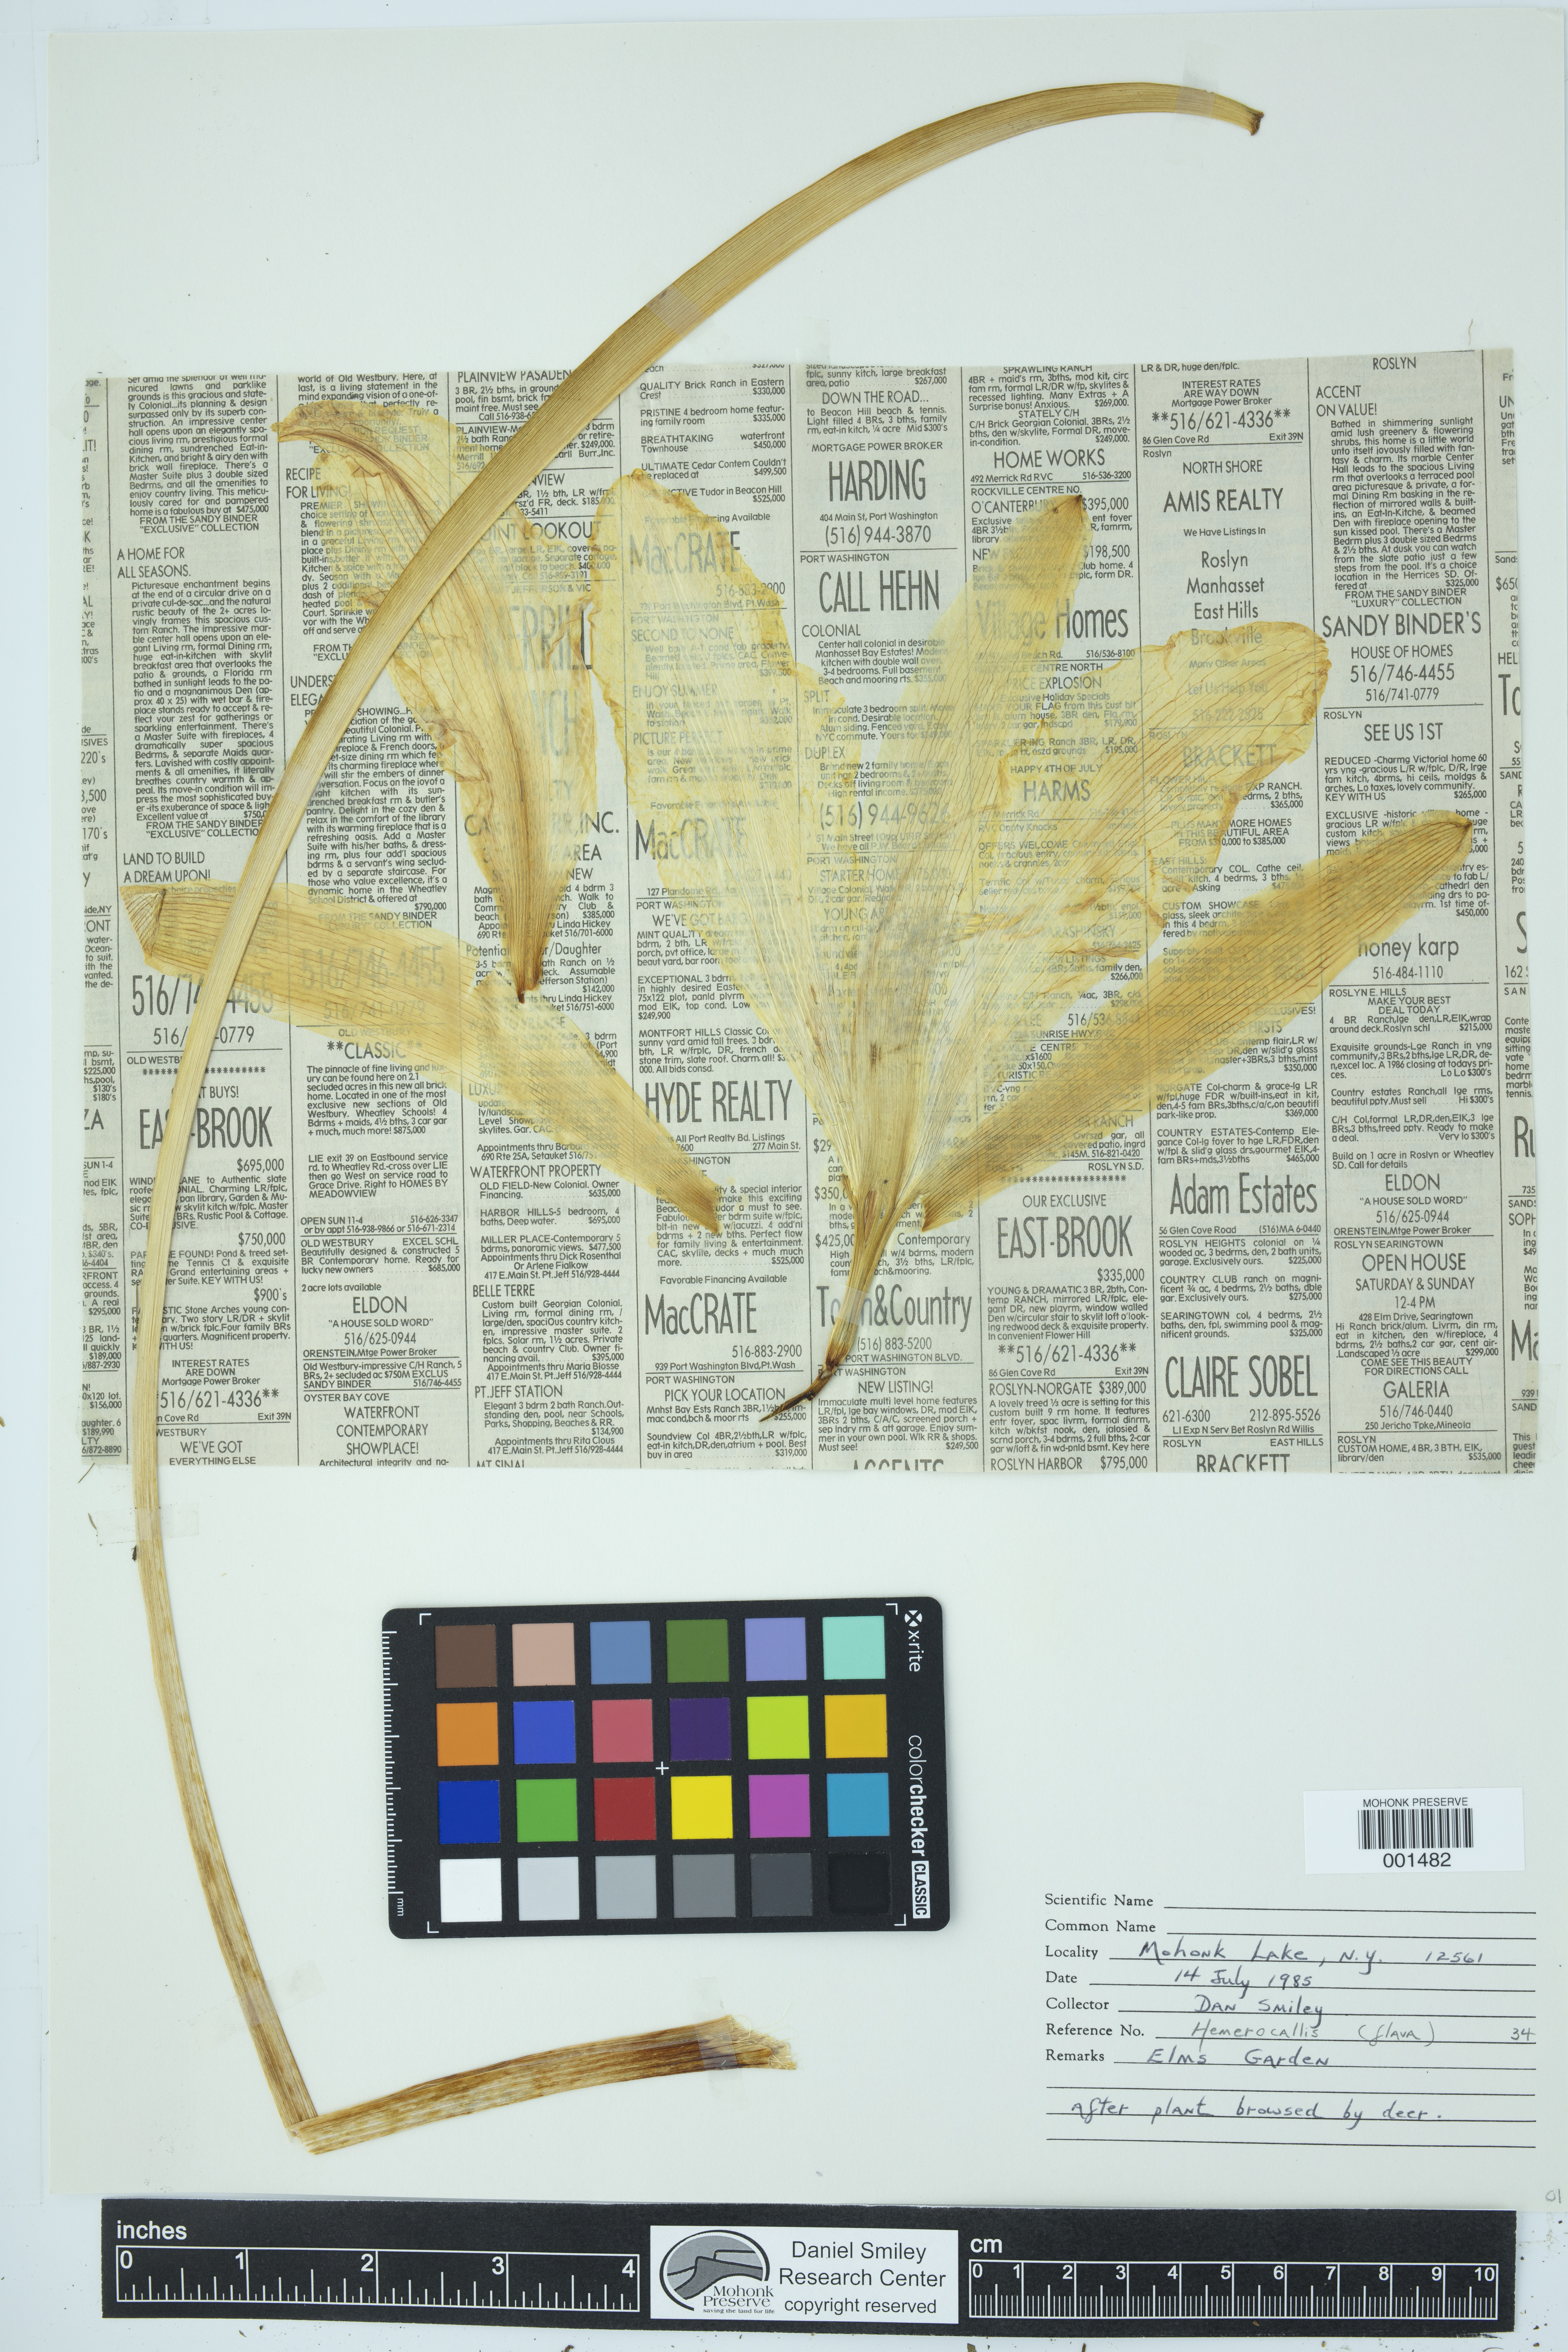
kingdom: Plantae
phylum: Tracheophyta
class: Liliopsida
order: Asparagales
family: Asphodelaceae
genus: Hemerocallis
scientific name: Hemerocallis lilioasphodelus
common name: Yellow day-lily
